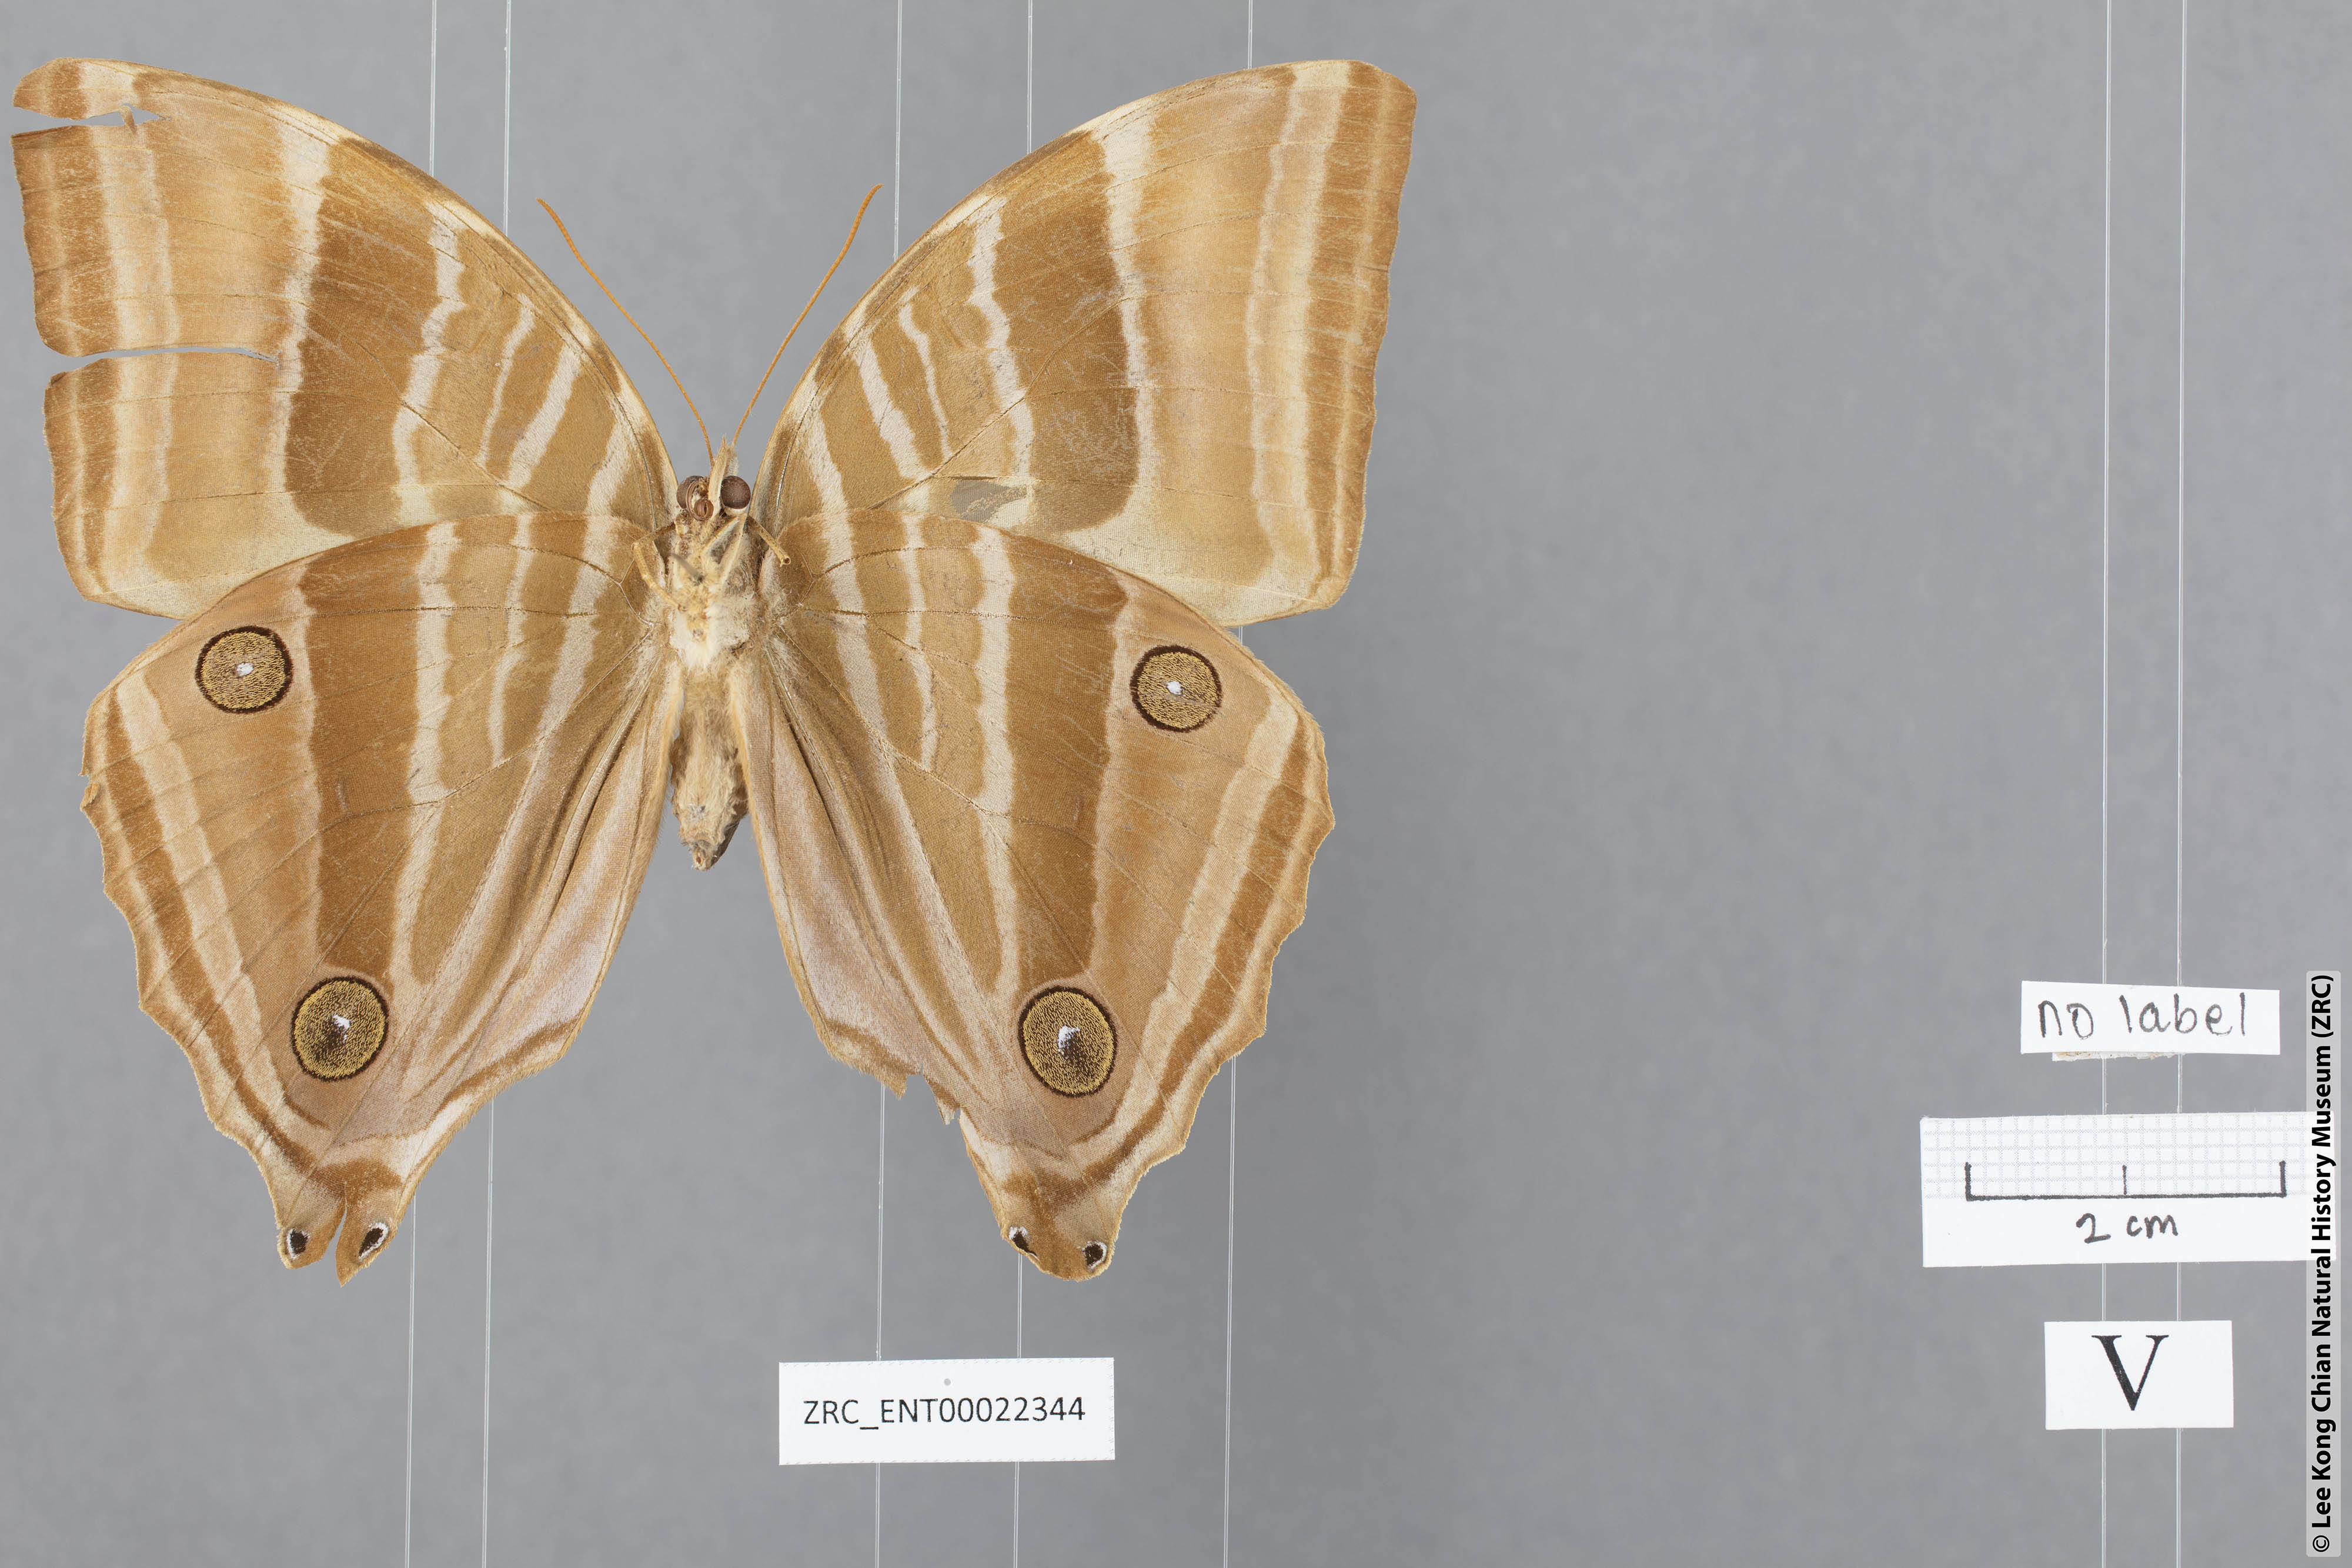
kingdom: Animalia
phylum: Arthropoda
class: Insecta
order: Lepidoptera
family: Nymphalidae
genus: Amathusia
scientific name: Amathusia phidippus
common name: Palm king
